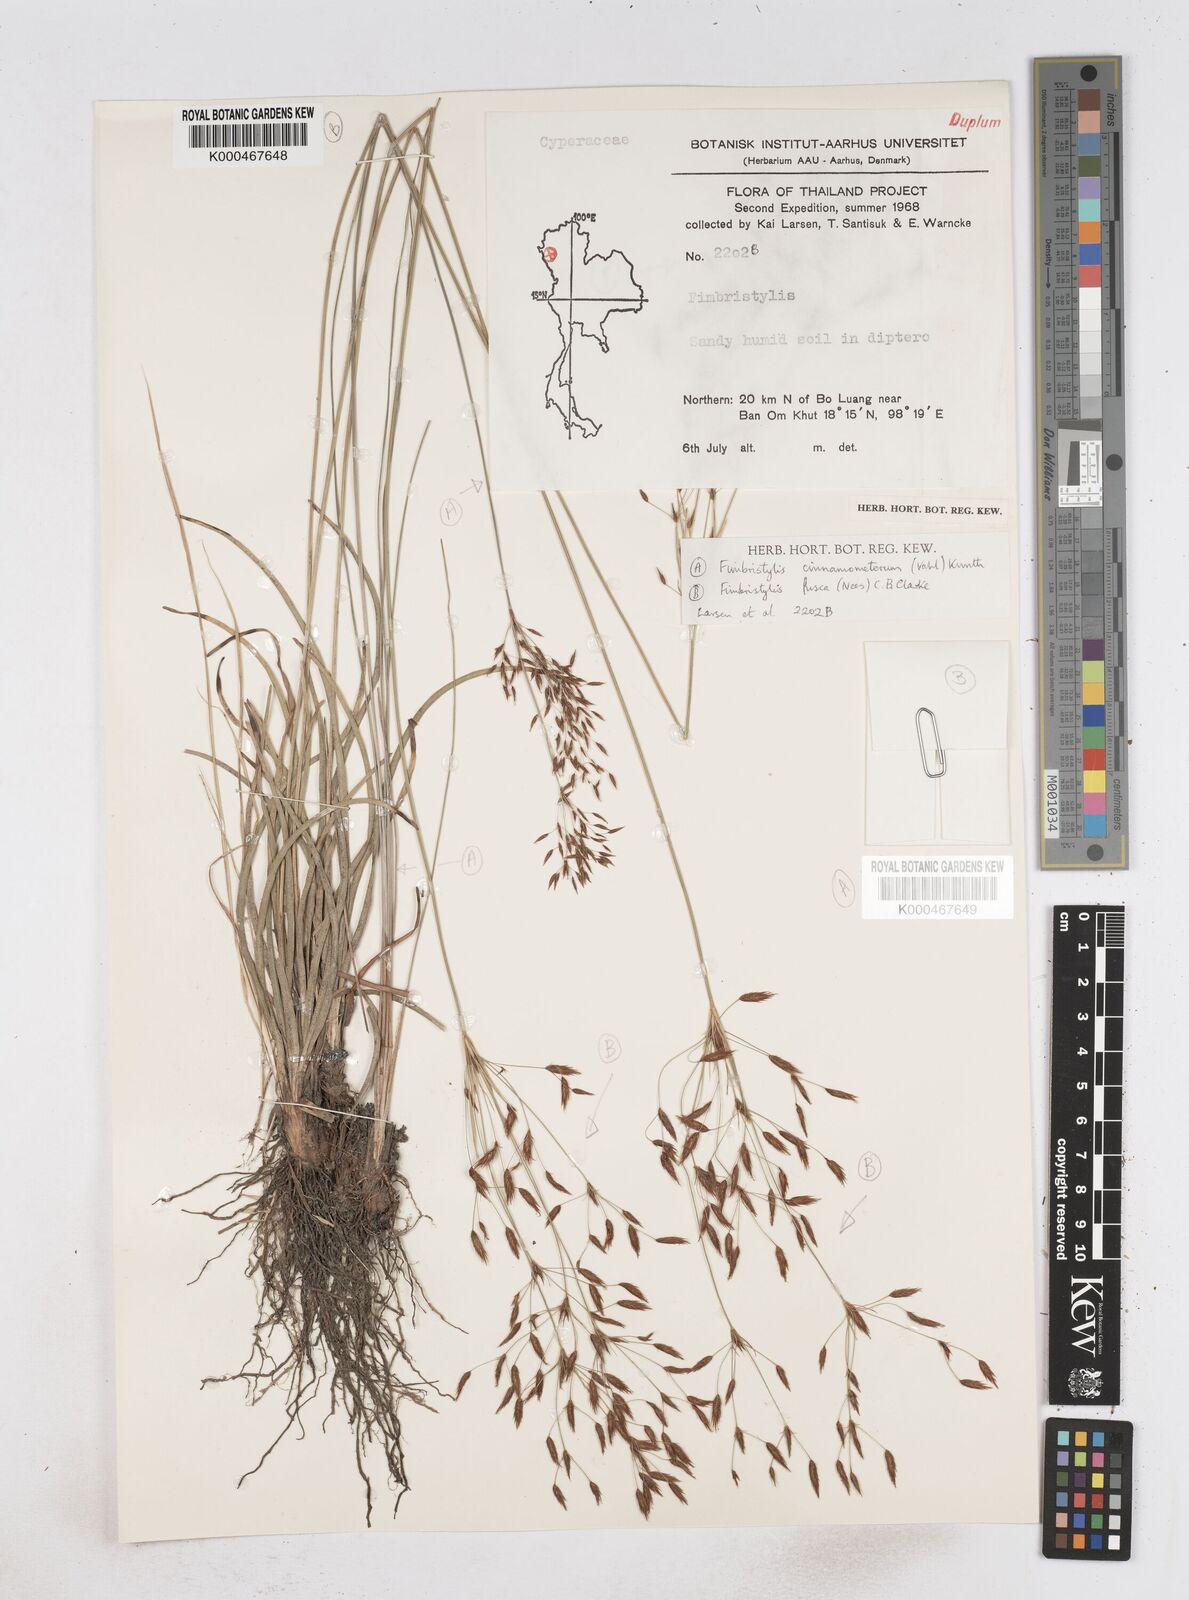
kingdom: Plantae
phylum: Tracheophyta
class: Liliopsida
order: Poales
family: Cyperaceae
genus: Fimbristylis
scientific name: Fimbristylis fusca
